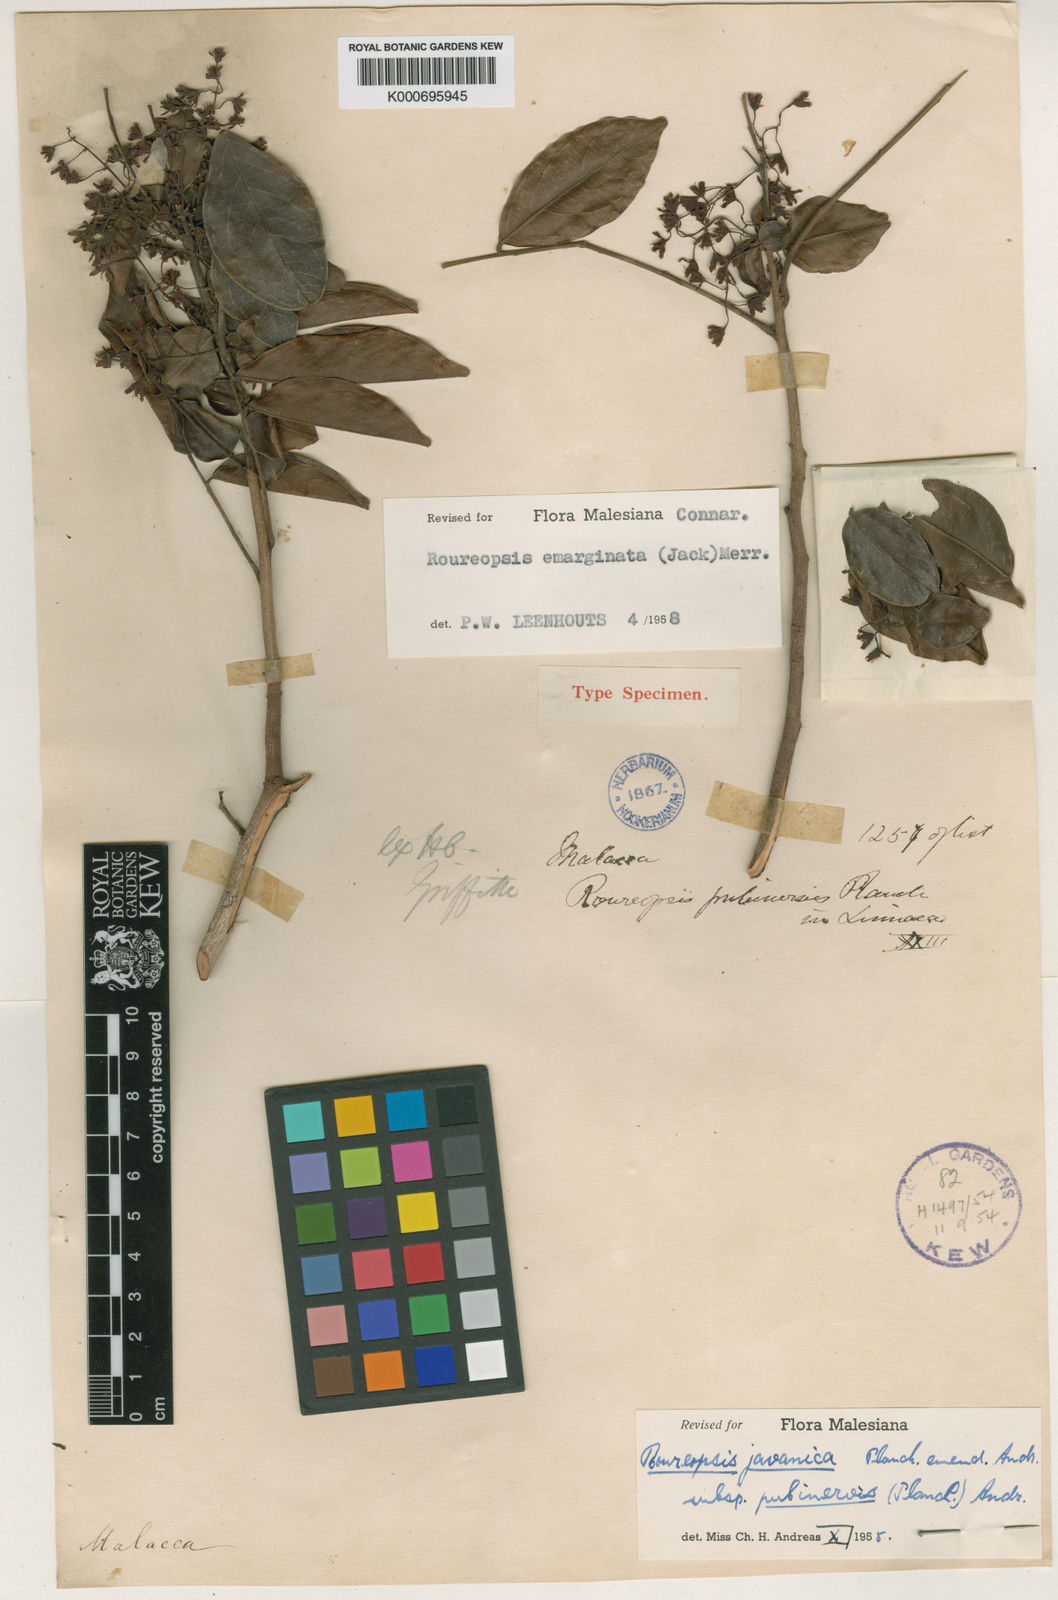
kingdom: Plantae
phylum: Tracheophyta
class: Magnoliopsida
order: Oxalidales
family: Connaraceae
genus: Rourea
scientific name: Rourea emarginata
